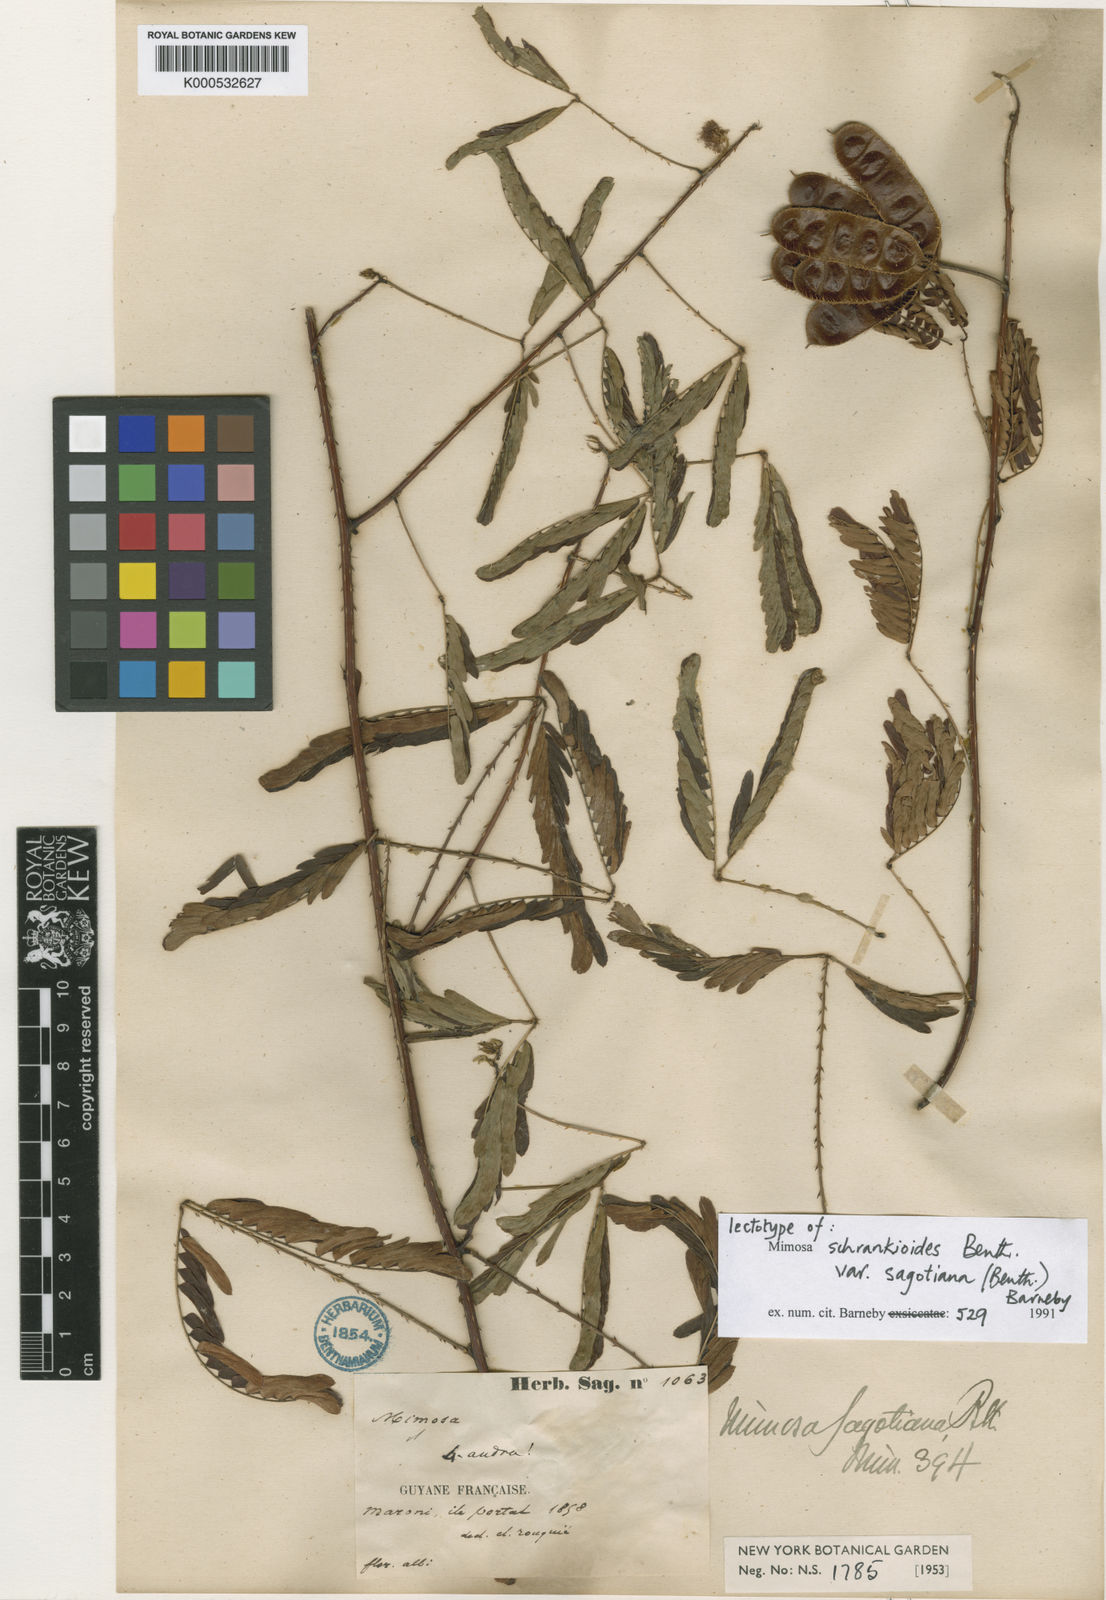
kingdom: Plantae
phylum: Tracheophyta
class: Magnoliopsida
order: Fabales
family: Fabaceae
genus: Mimosa
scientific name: Mimosa schrankioides
